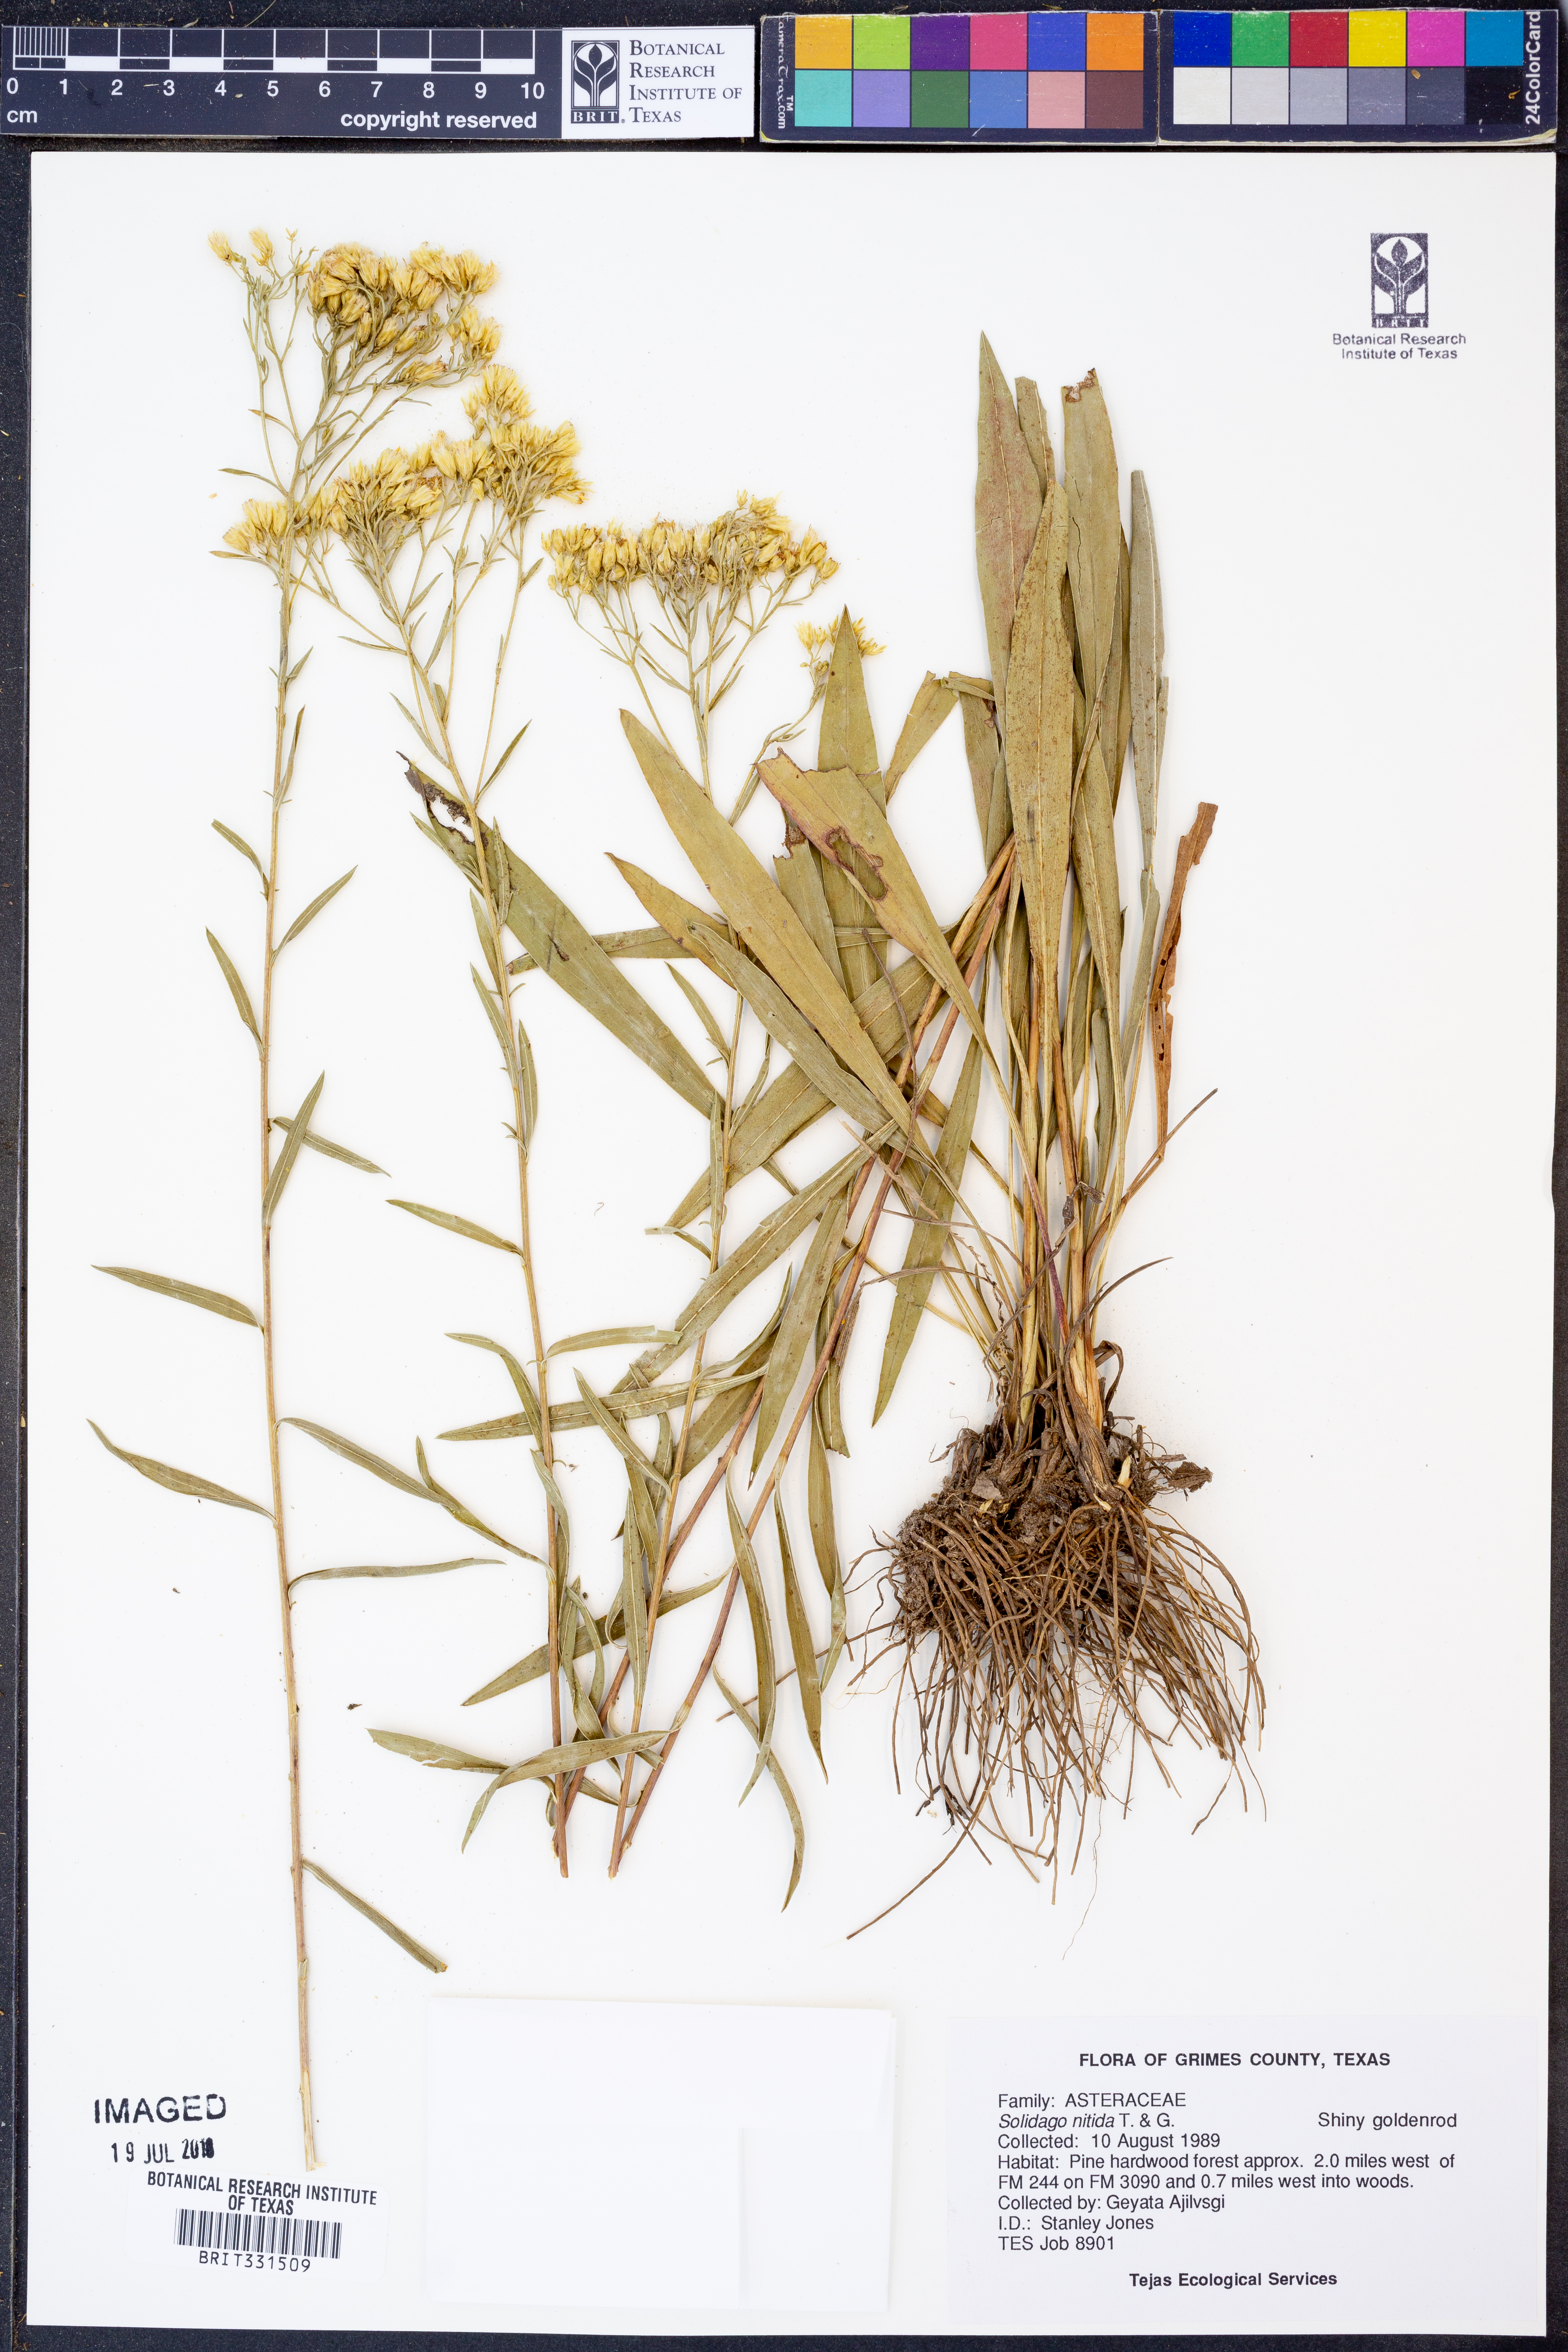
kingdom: Plantae
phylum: Tracheophyta
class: Magnoliopsida
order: Asterales
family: Asteraceae
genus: Solidago
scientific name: Solidago nitida
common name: Shiny goldenrod
